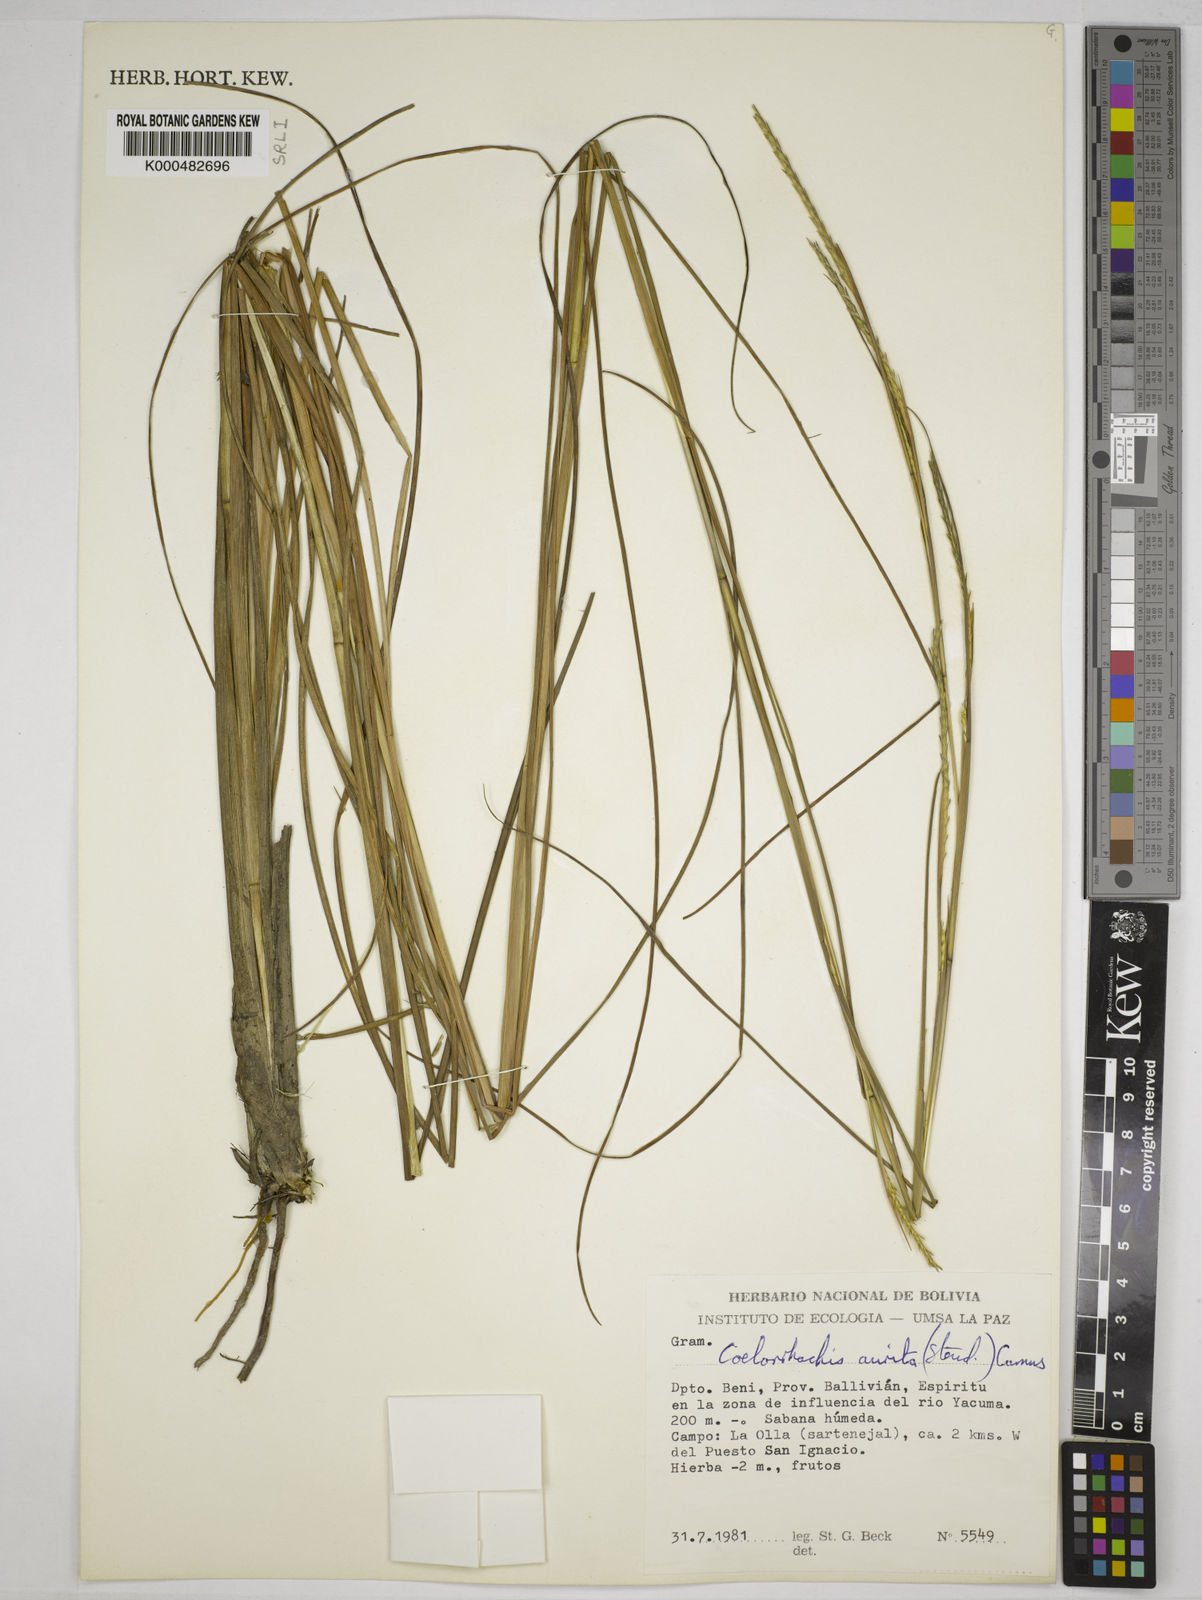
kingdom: Plantae
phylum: Tracheophyta
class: Liliopsida
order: Poales
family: Poaceae
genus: Rottboellia
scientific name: Rottboellia aurita
